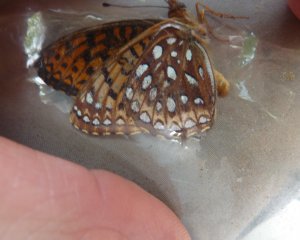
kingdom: Animalia
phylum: Arthropoda
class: Insecta
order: Lepidoptera
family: Nymphalidae
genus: Speyeria
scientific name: Speyeria atlantis
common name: Atlantis Fritillary
